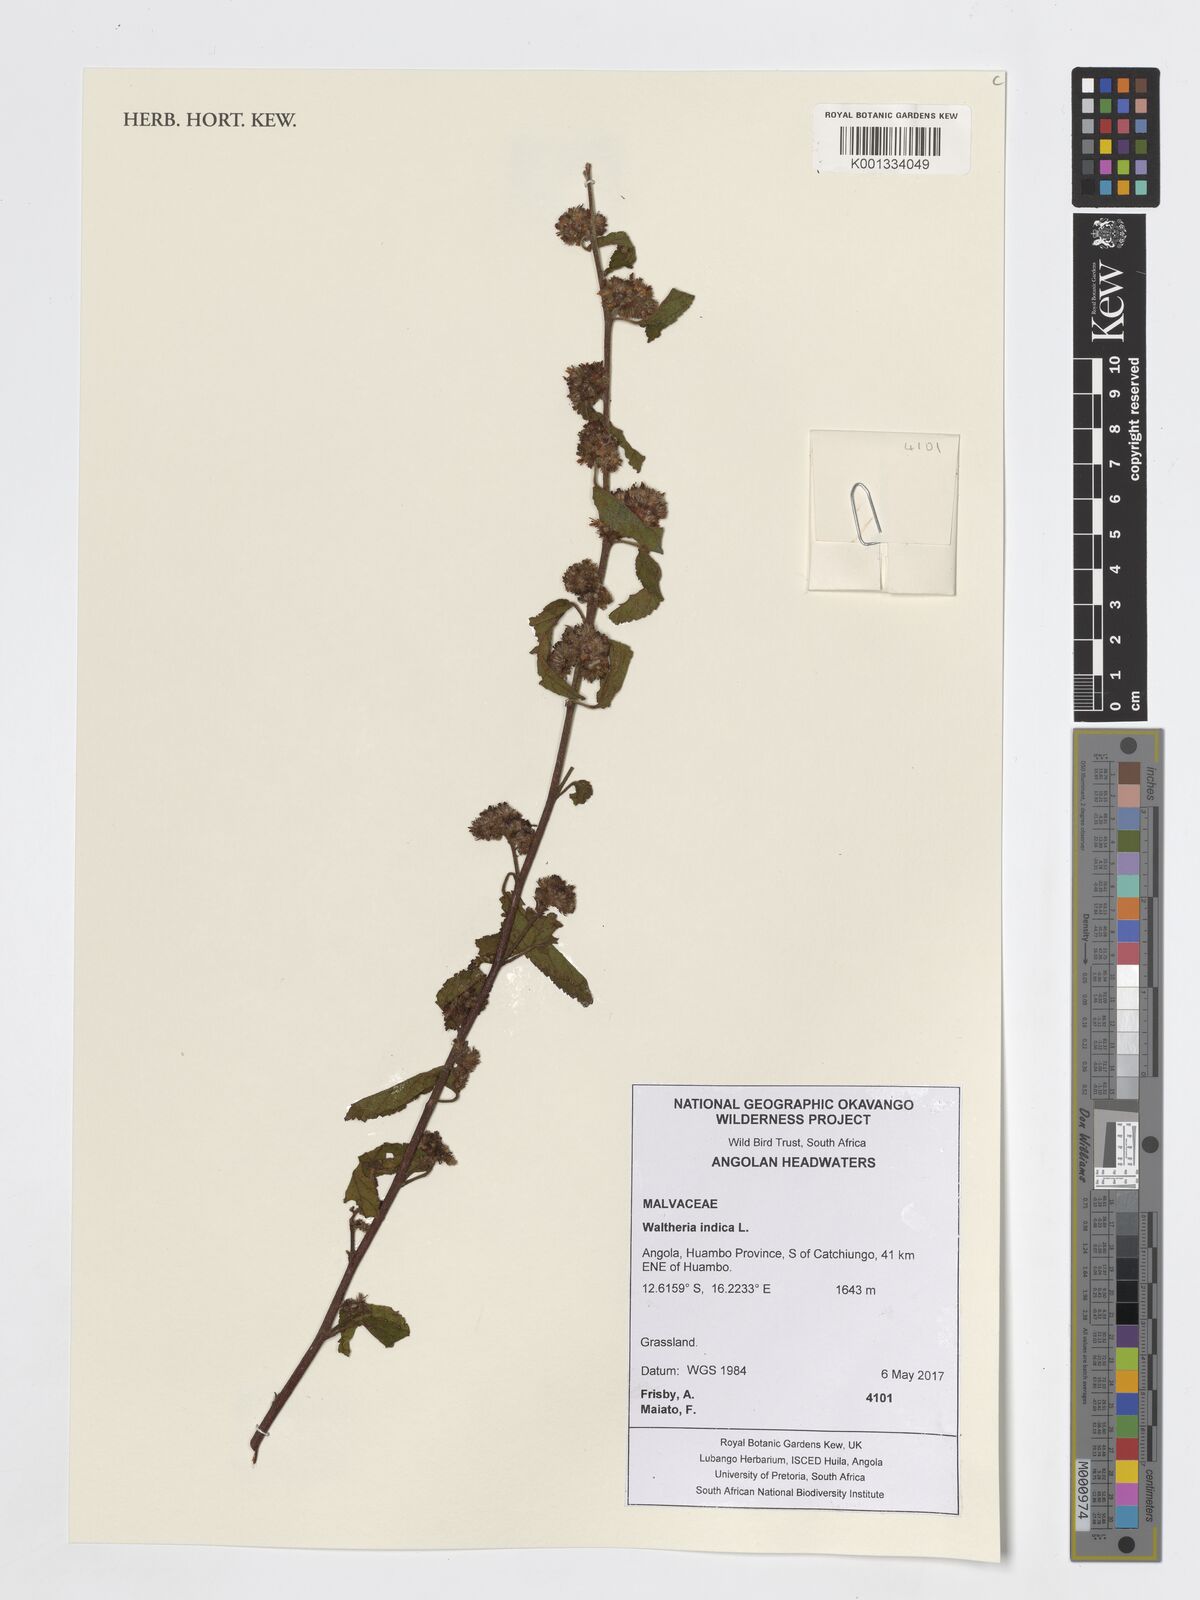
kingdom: Plantae
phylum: Tracheophyta
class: Magnoliopsida
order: Malvales
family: Malvaceae
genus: Waltheria
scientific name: Waltheria indica
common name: Leather-coat
